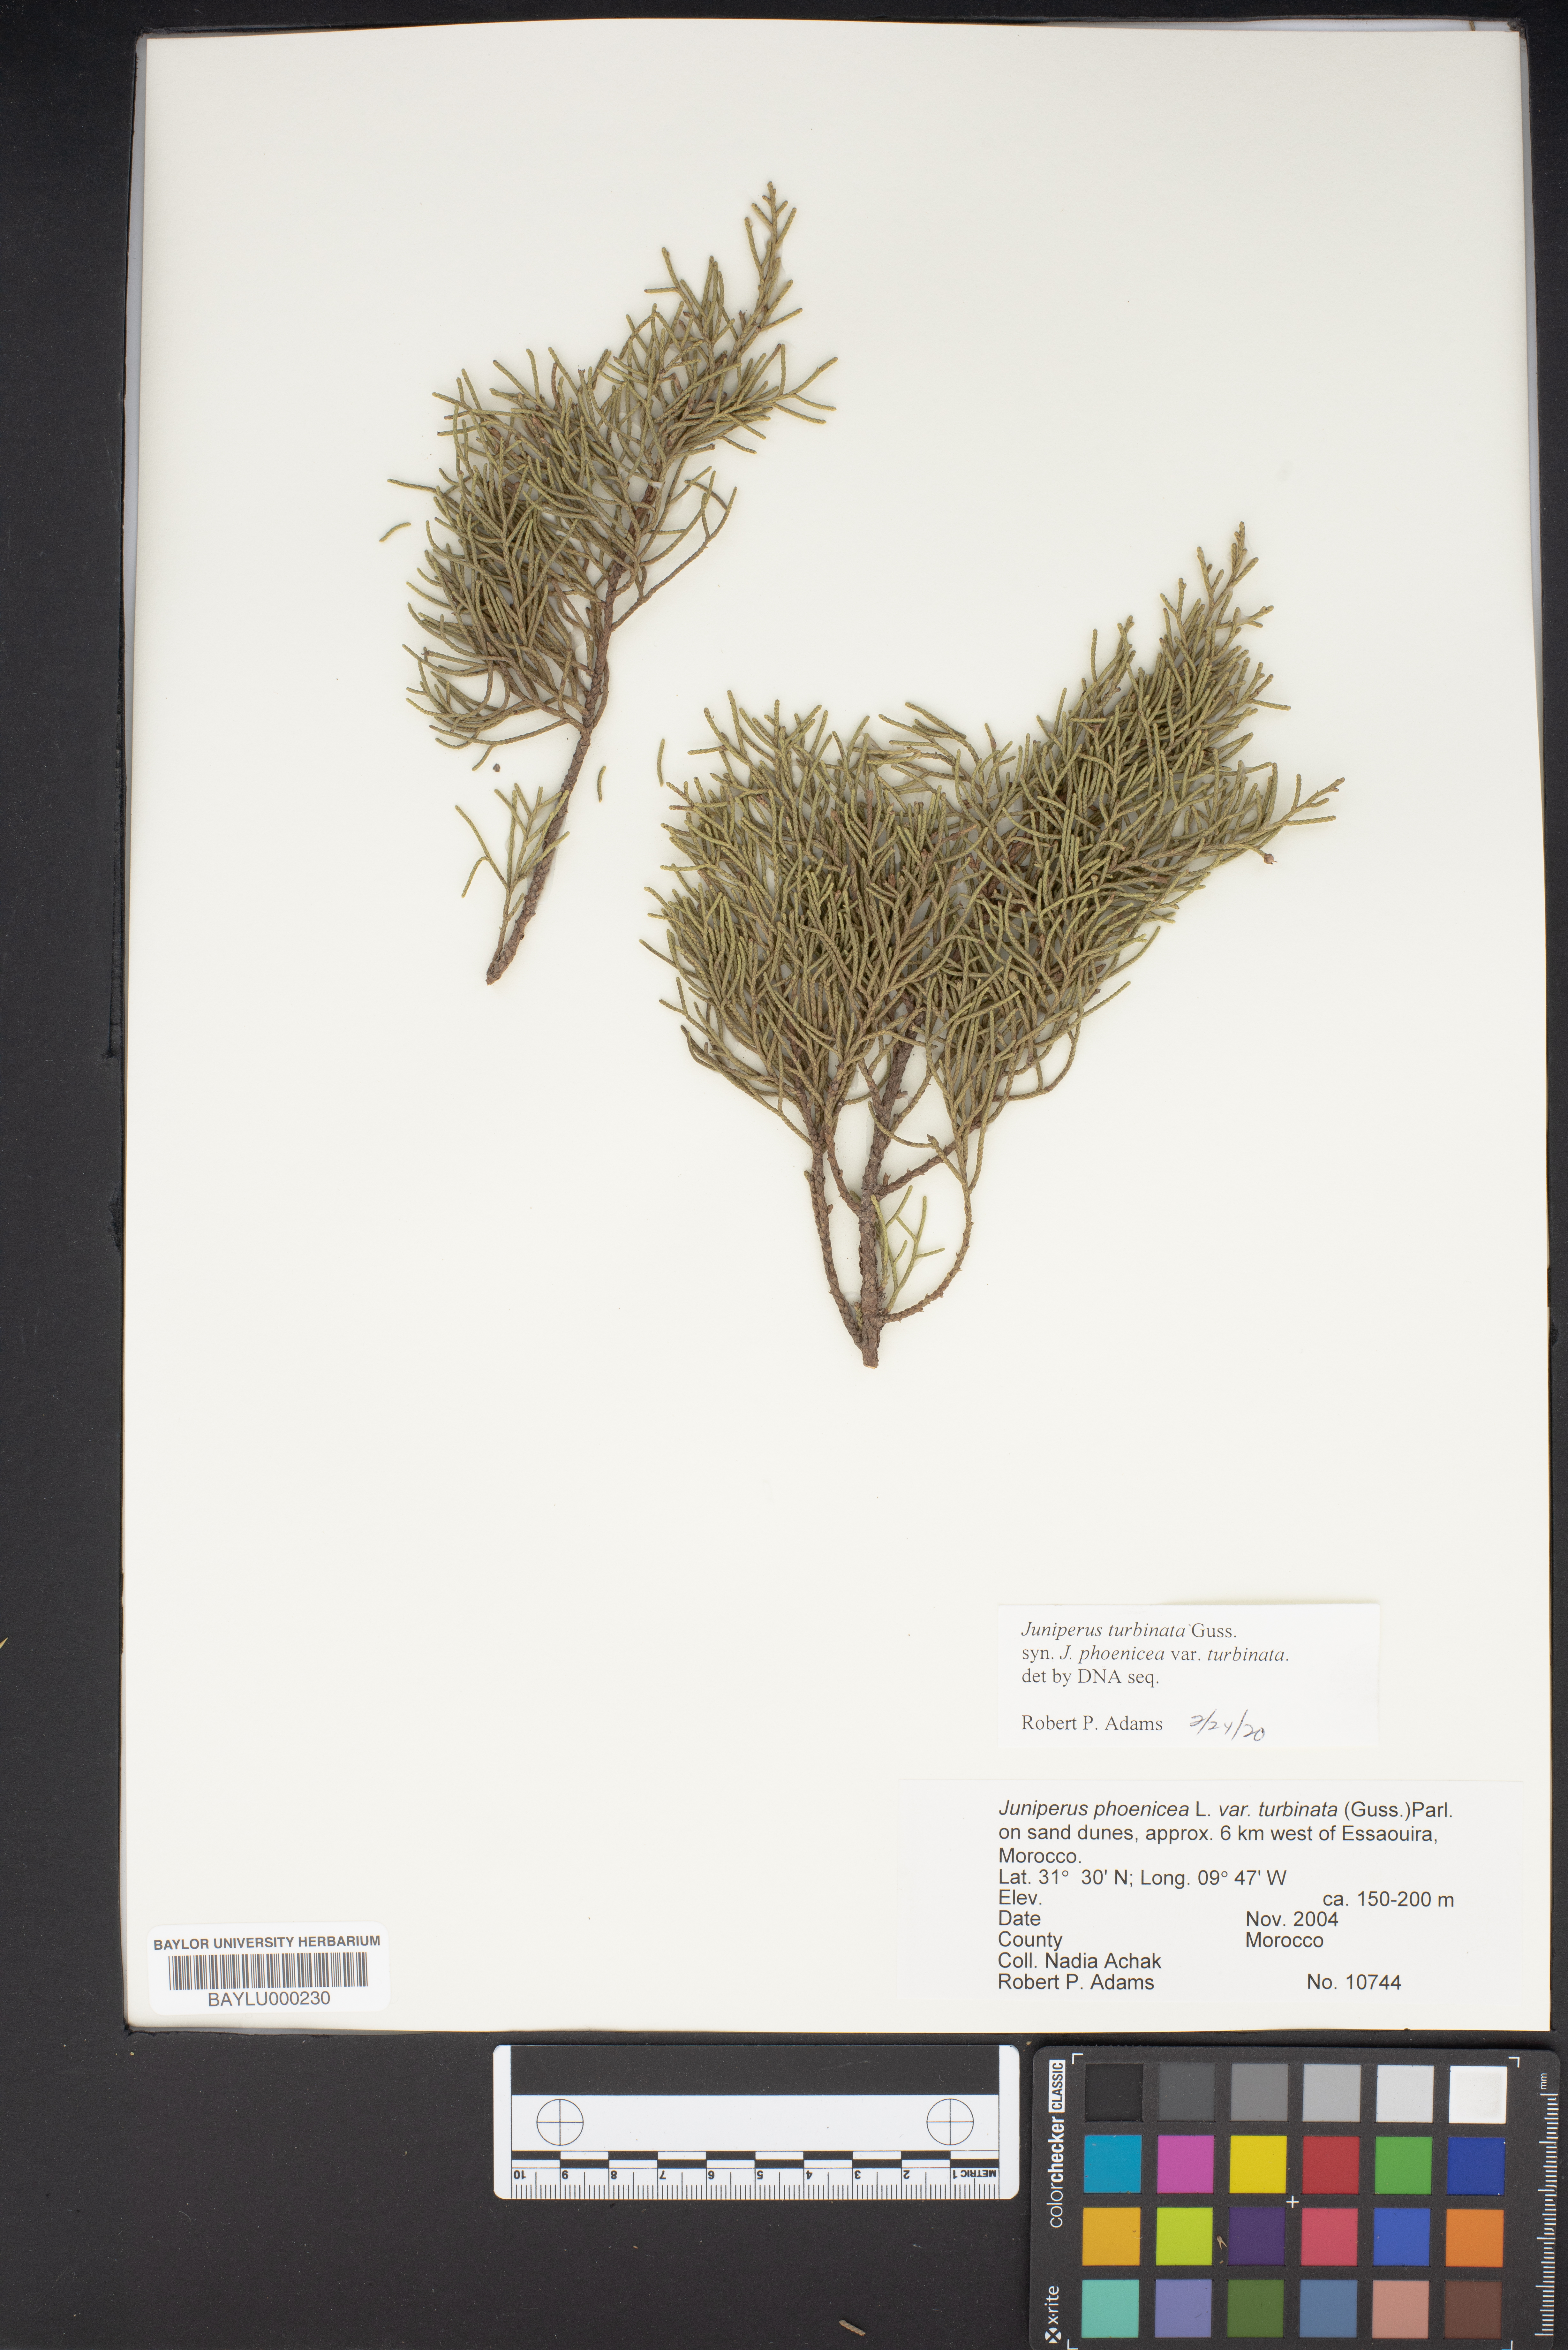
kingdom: Plantae
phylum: Tracheophyta
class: Pinopsida
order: Pinales
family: Cupressaceae
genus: Juniperus
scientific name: Juniperus phoenicea
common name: Phoenician juniper
